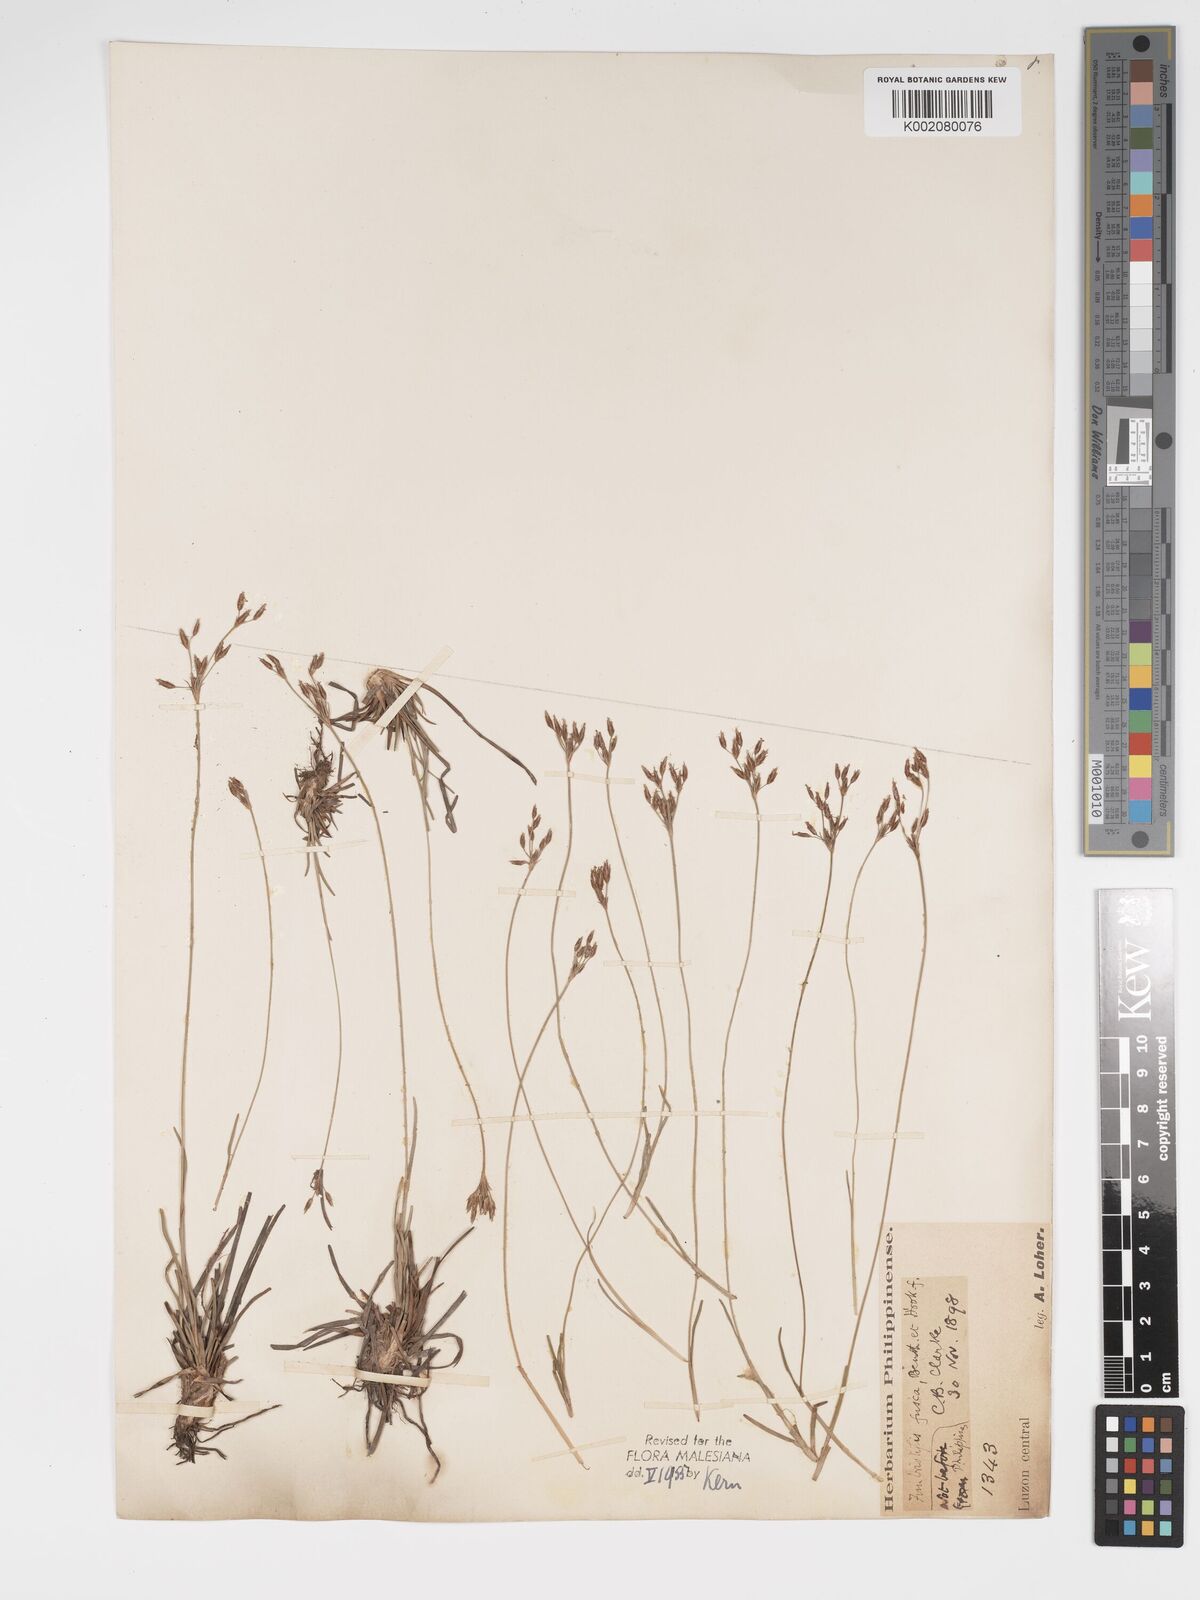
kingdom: Plantae
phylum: Tracheophyta
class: Liliopsida
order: Poales
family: Cyperaceae
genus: Fimbristylis
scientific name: Fimbristylis fusca
